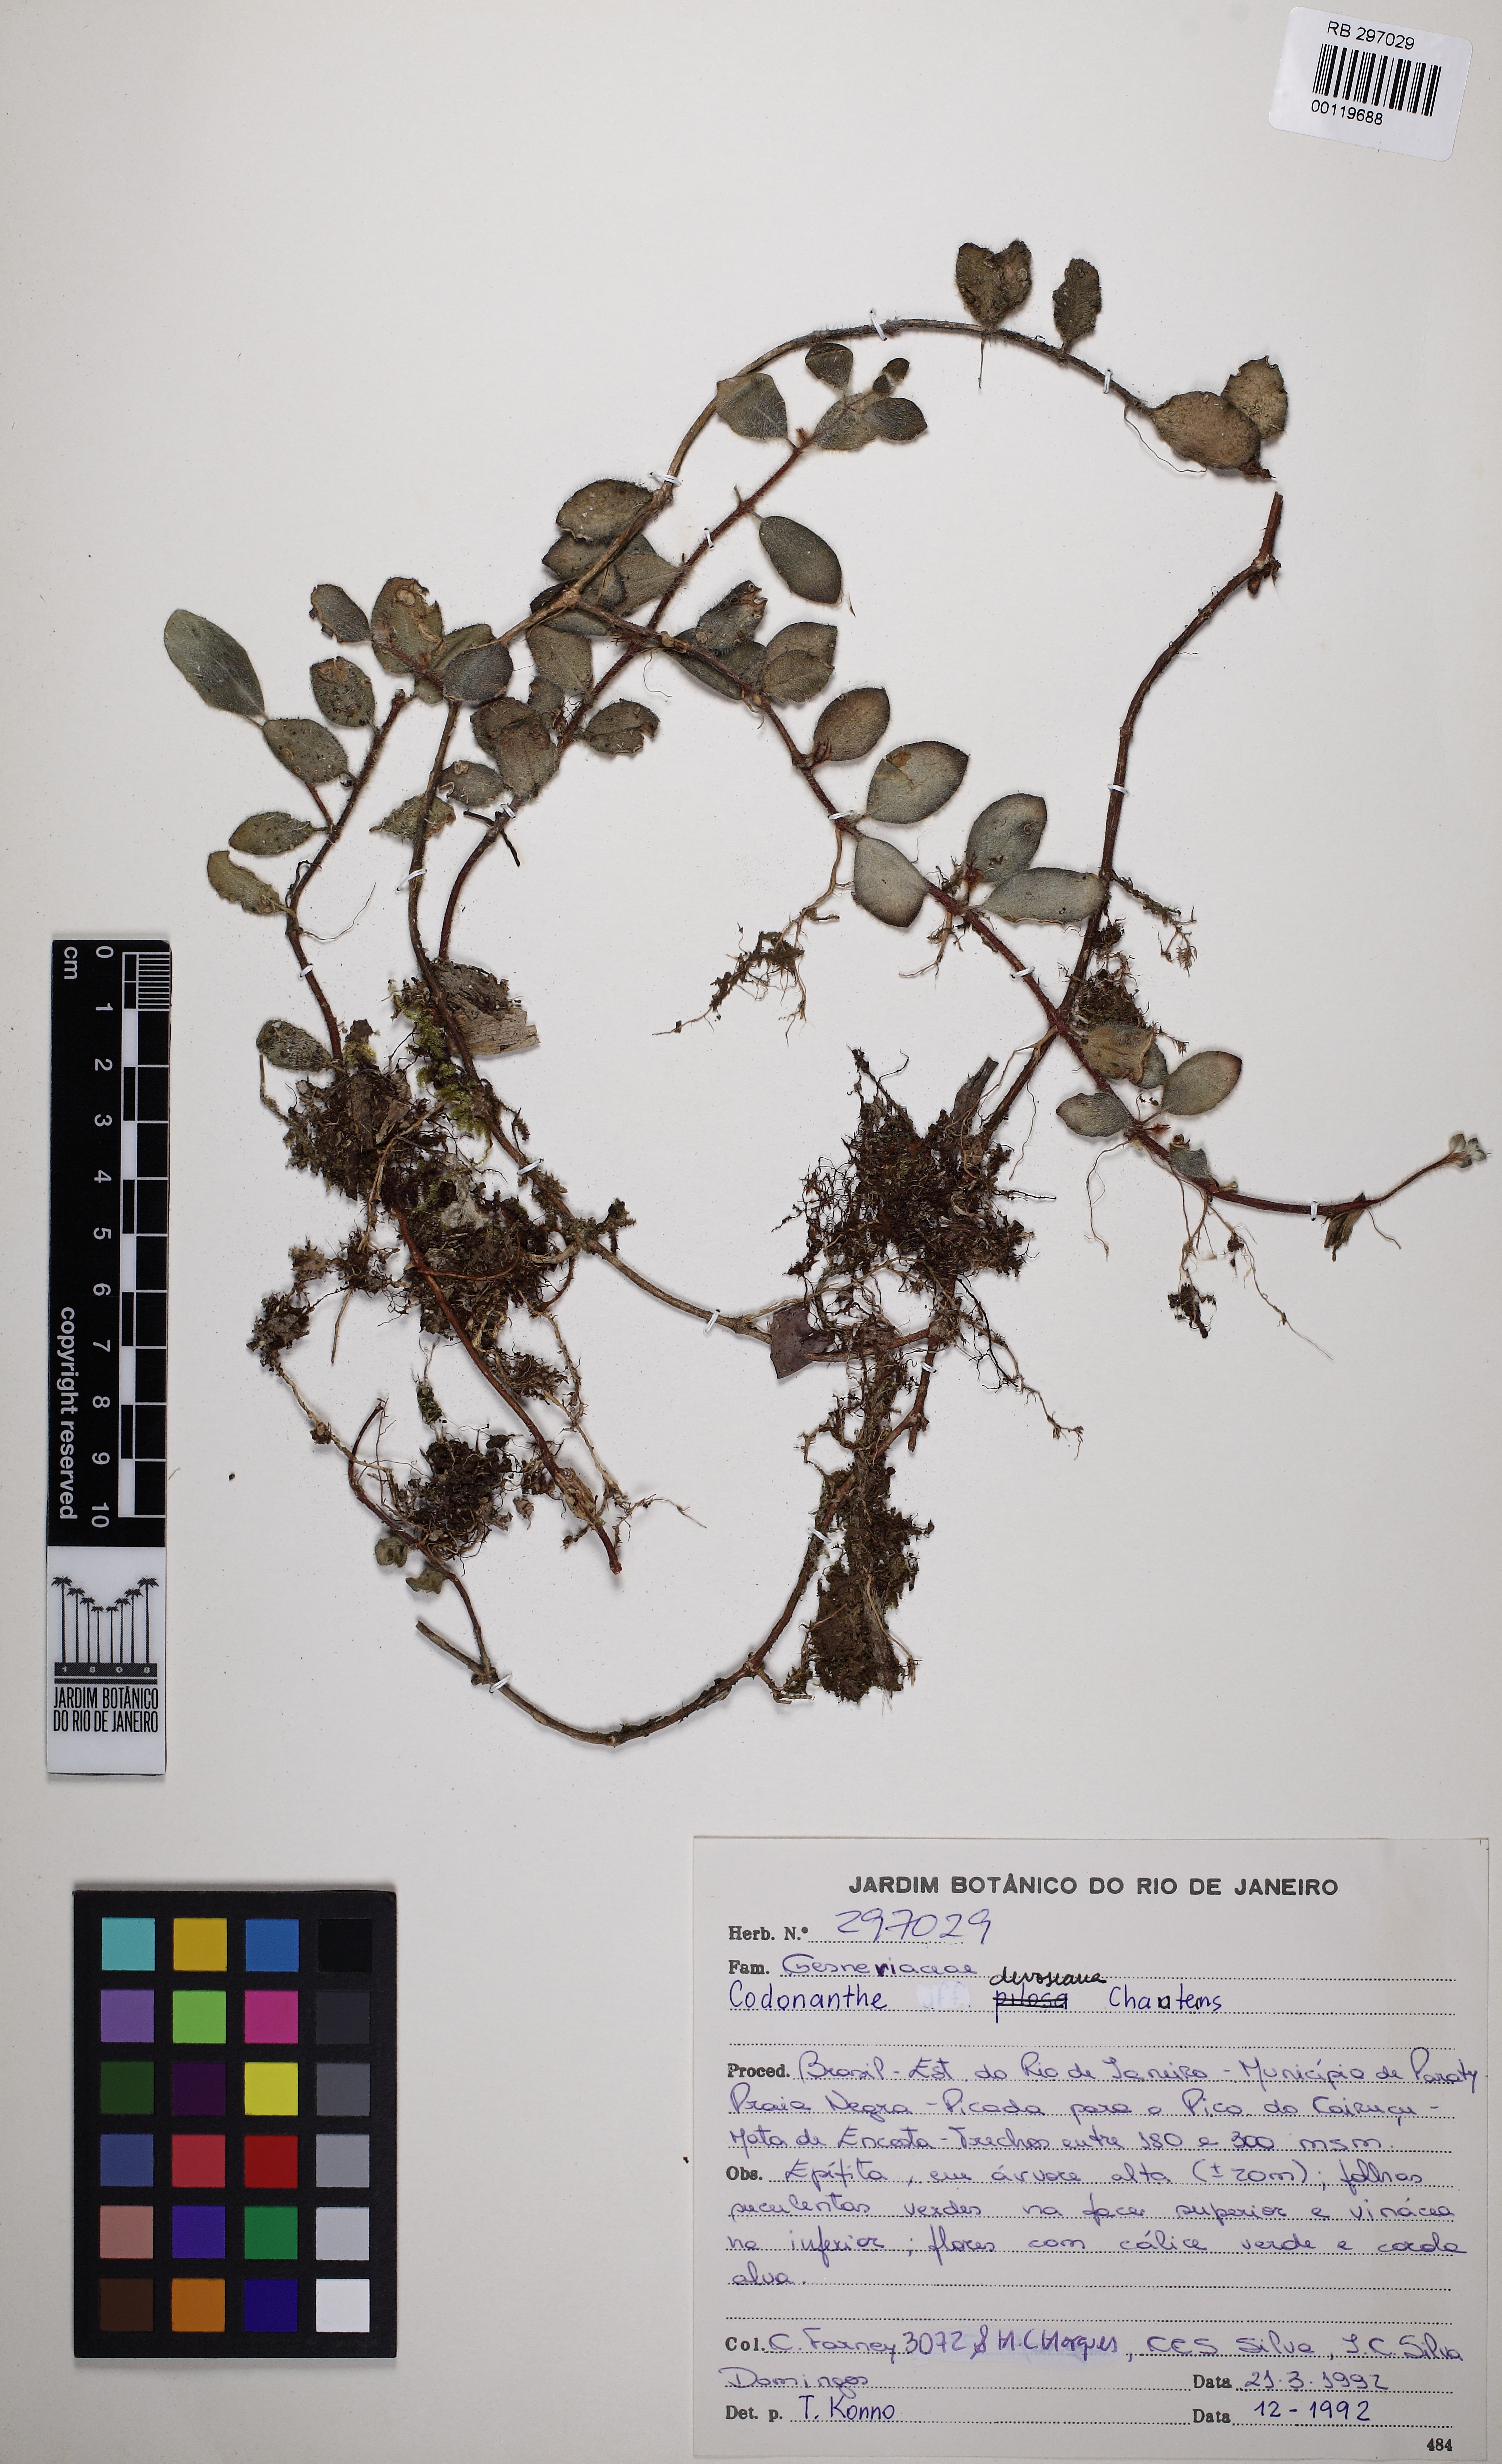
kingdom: Plantae
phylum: Tracheophyta
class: Magnoliopsida
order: Lamiales
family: Gesneriaceae
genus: Codonanthe
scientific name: Codonanthe devosiana
